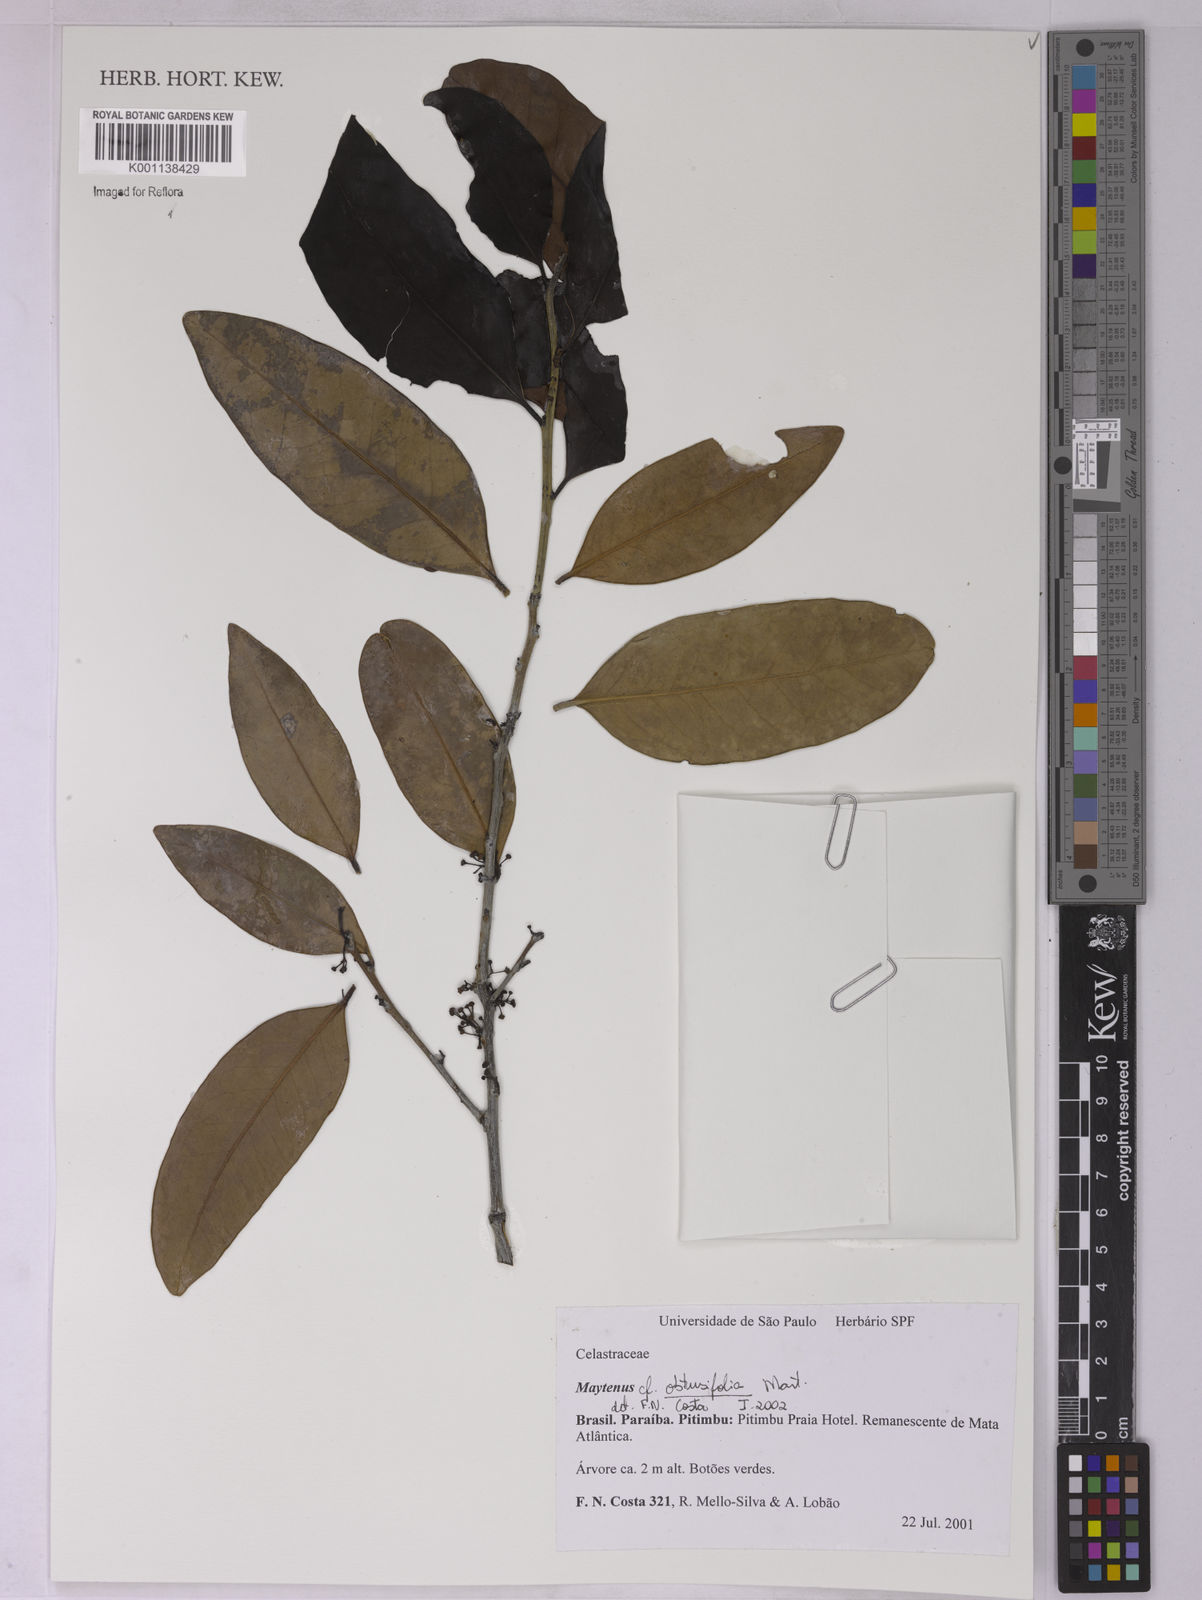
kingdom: Plantae
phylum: Tracheophyta
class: Magnoliopsida
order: Celastrales
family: Celastraceae
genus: Monteverdia
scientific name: Monteverdia obtusifolia
